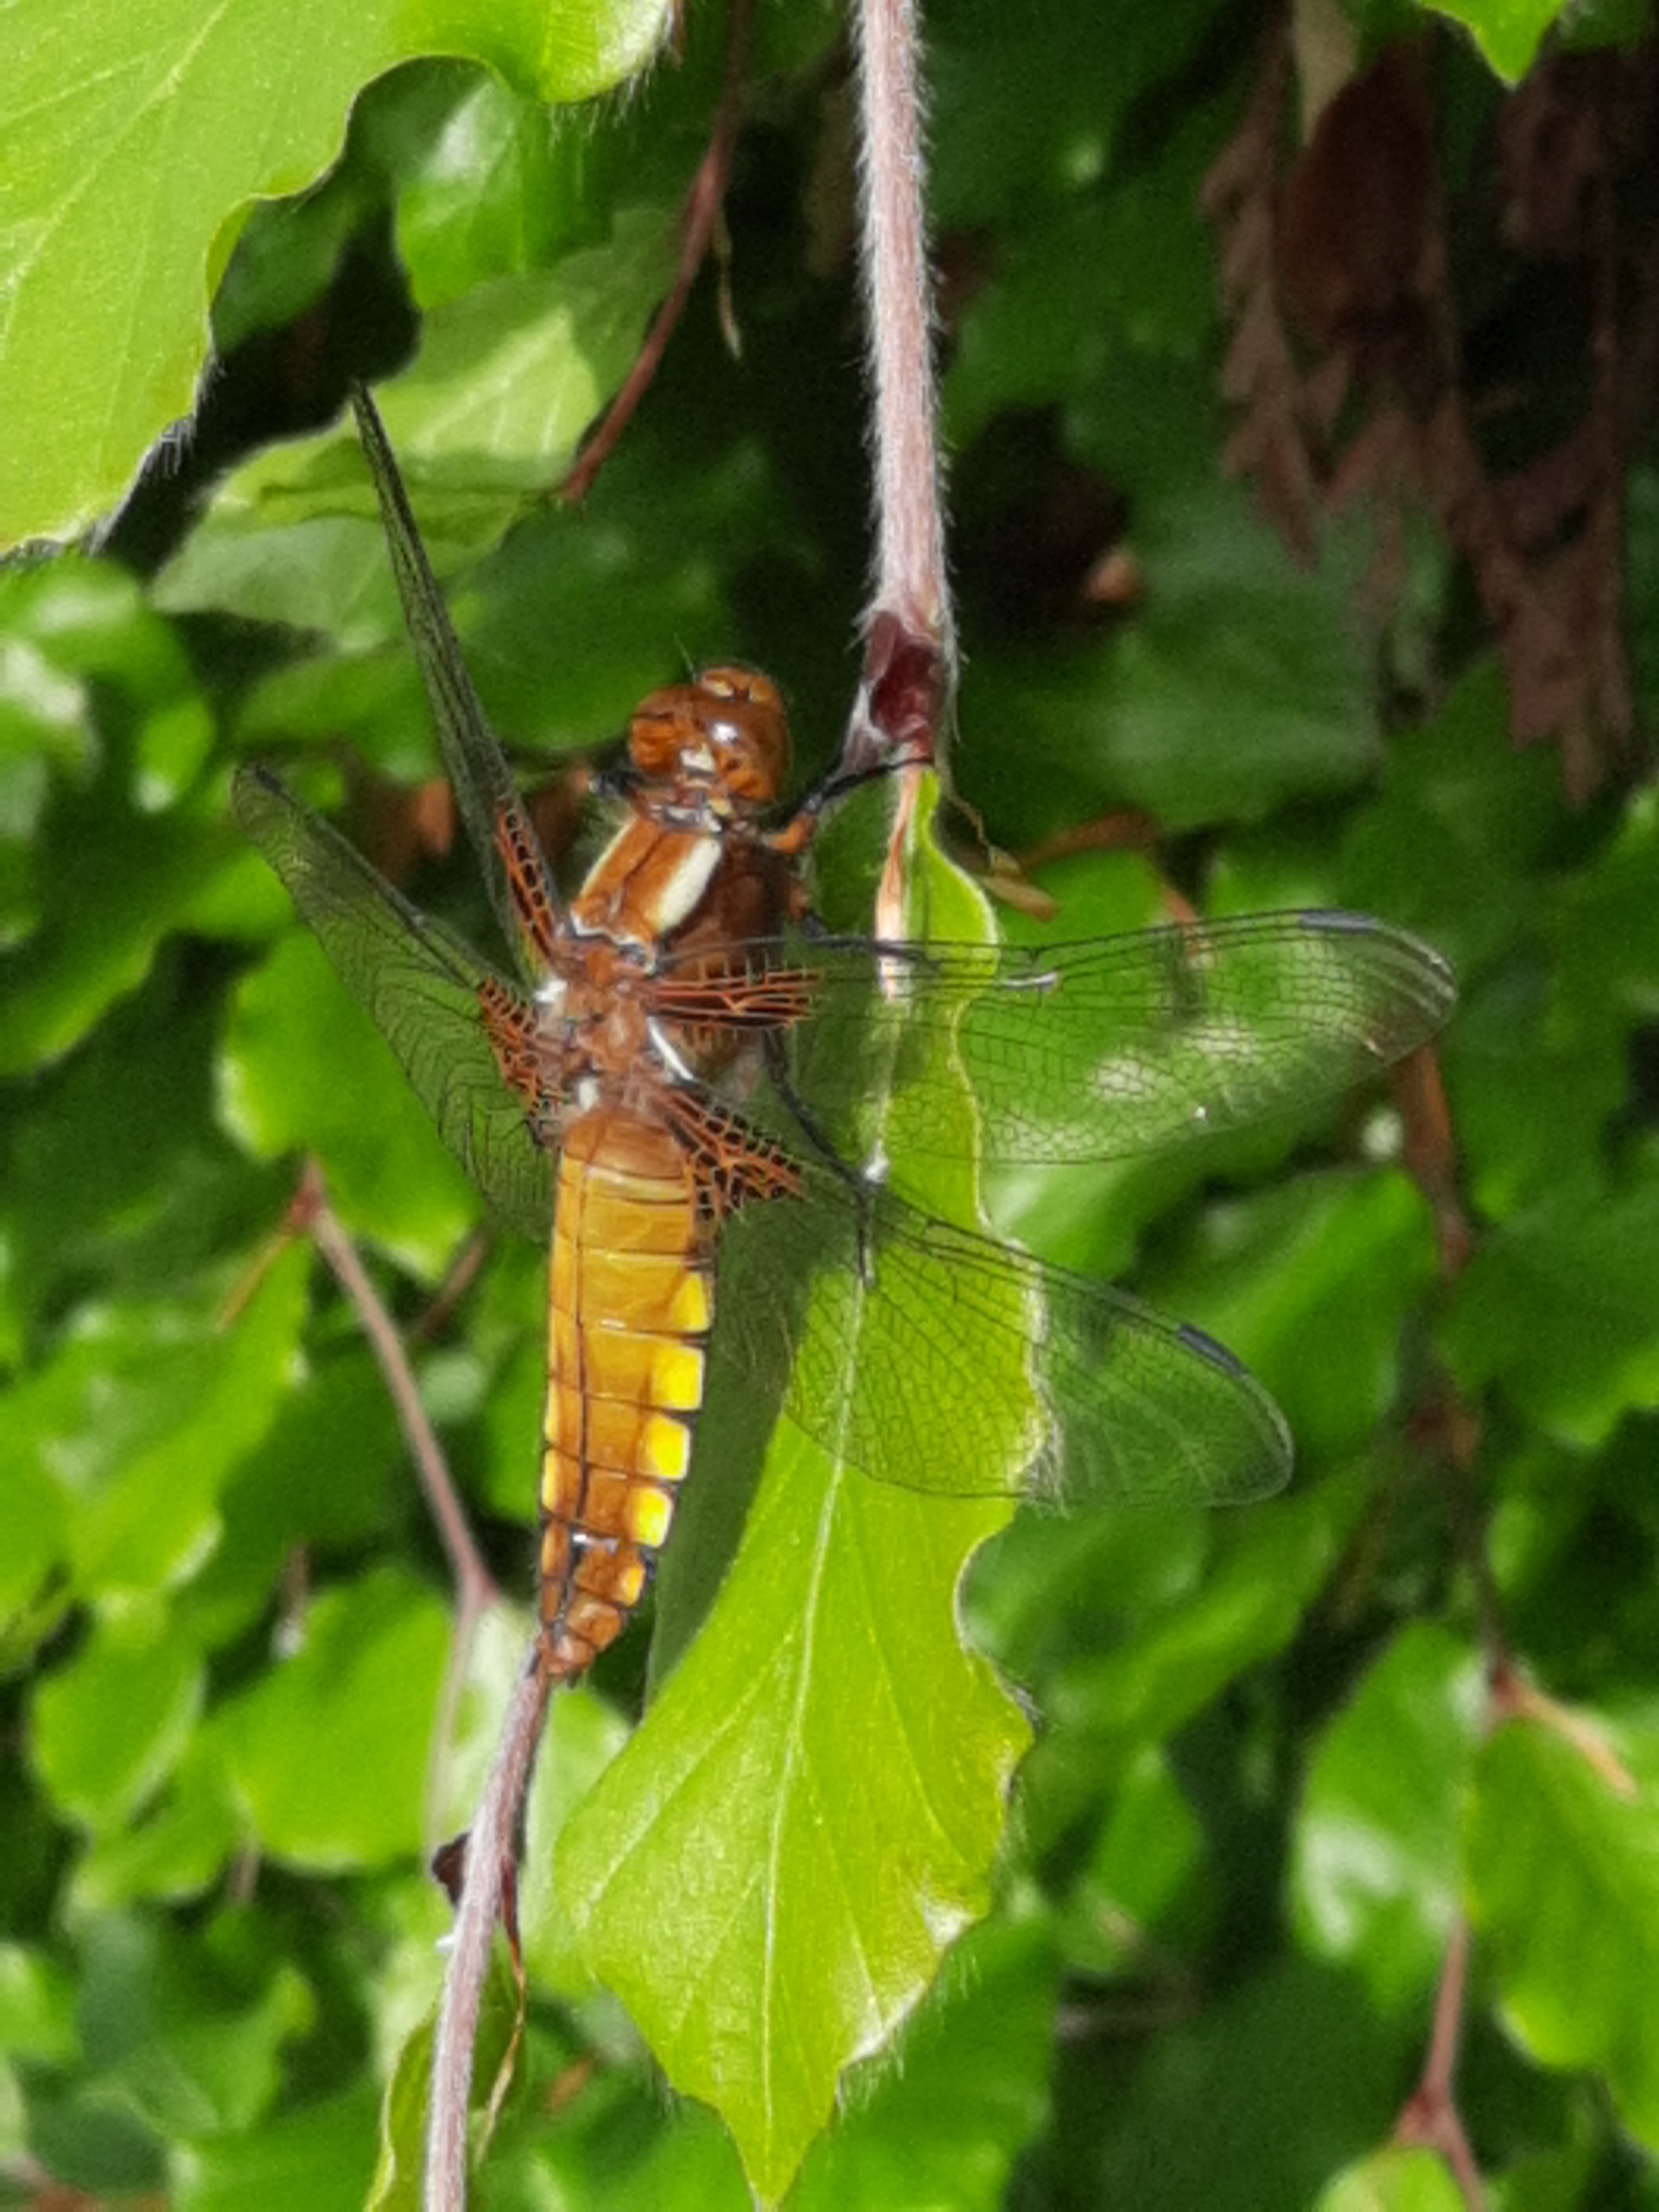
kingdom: Animalia
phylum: Arthropoda
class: Insecta
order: Odonata
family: Libellulidae
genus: Libellula
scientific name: Libellula depressa
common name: Blå libel
